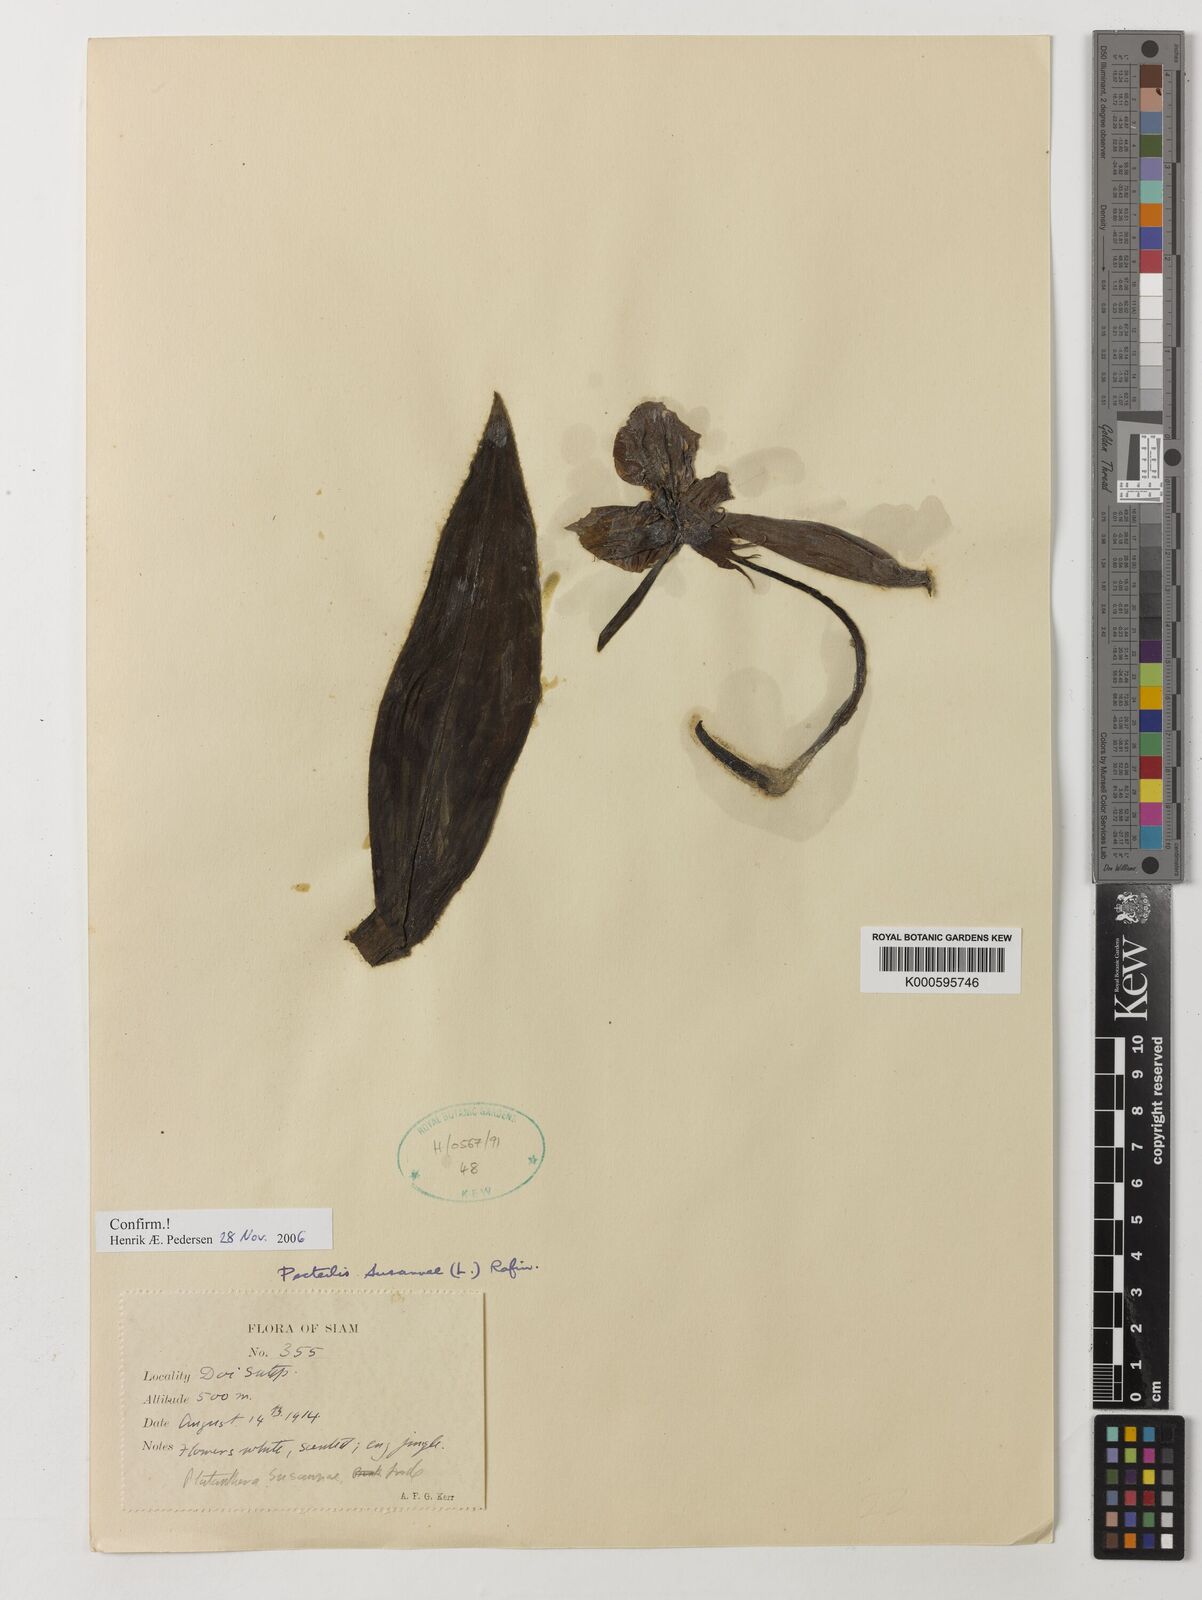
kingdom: Plantae
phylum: Tracheophyta
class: Liliopsida
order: Asparagales
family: Orchidaceae
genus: Pecteilis
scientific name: Pecteilis susannae
